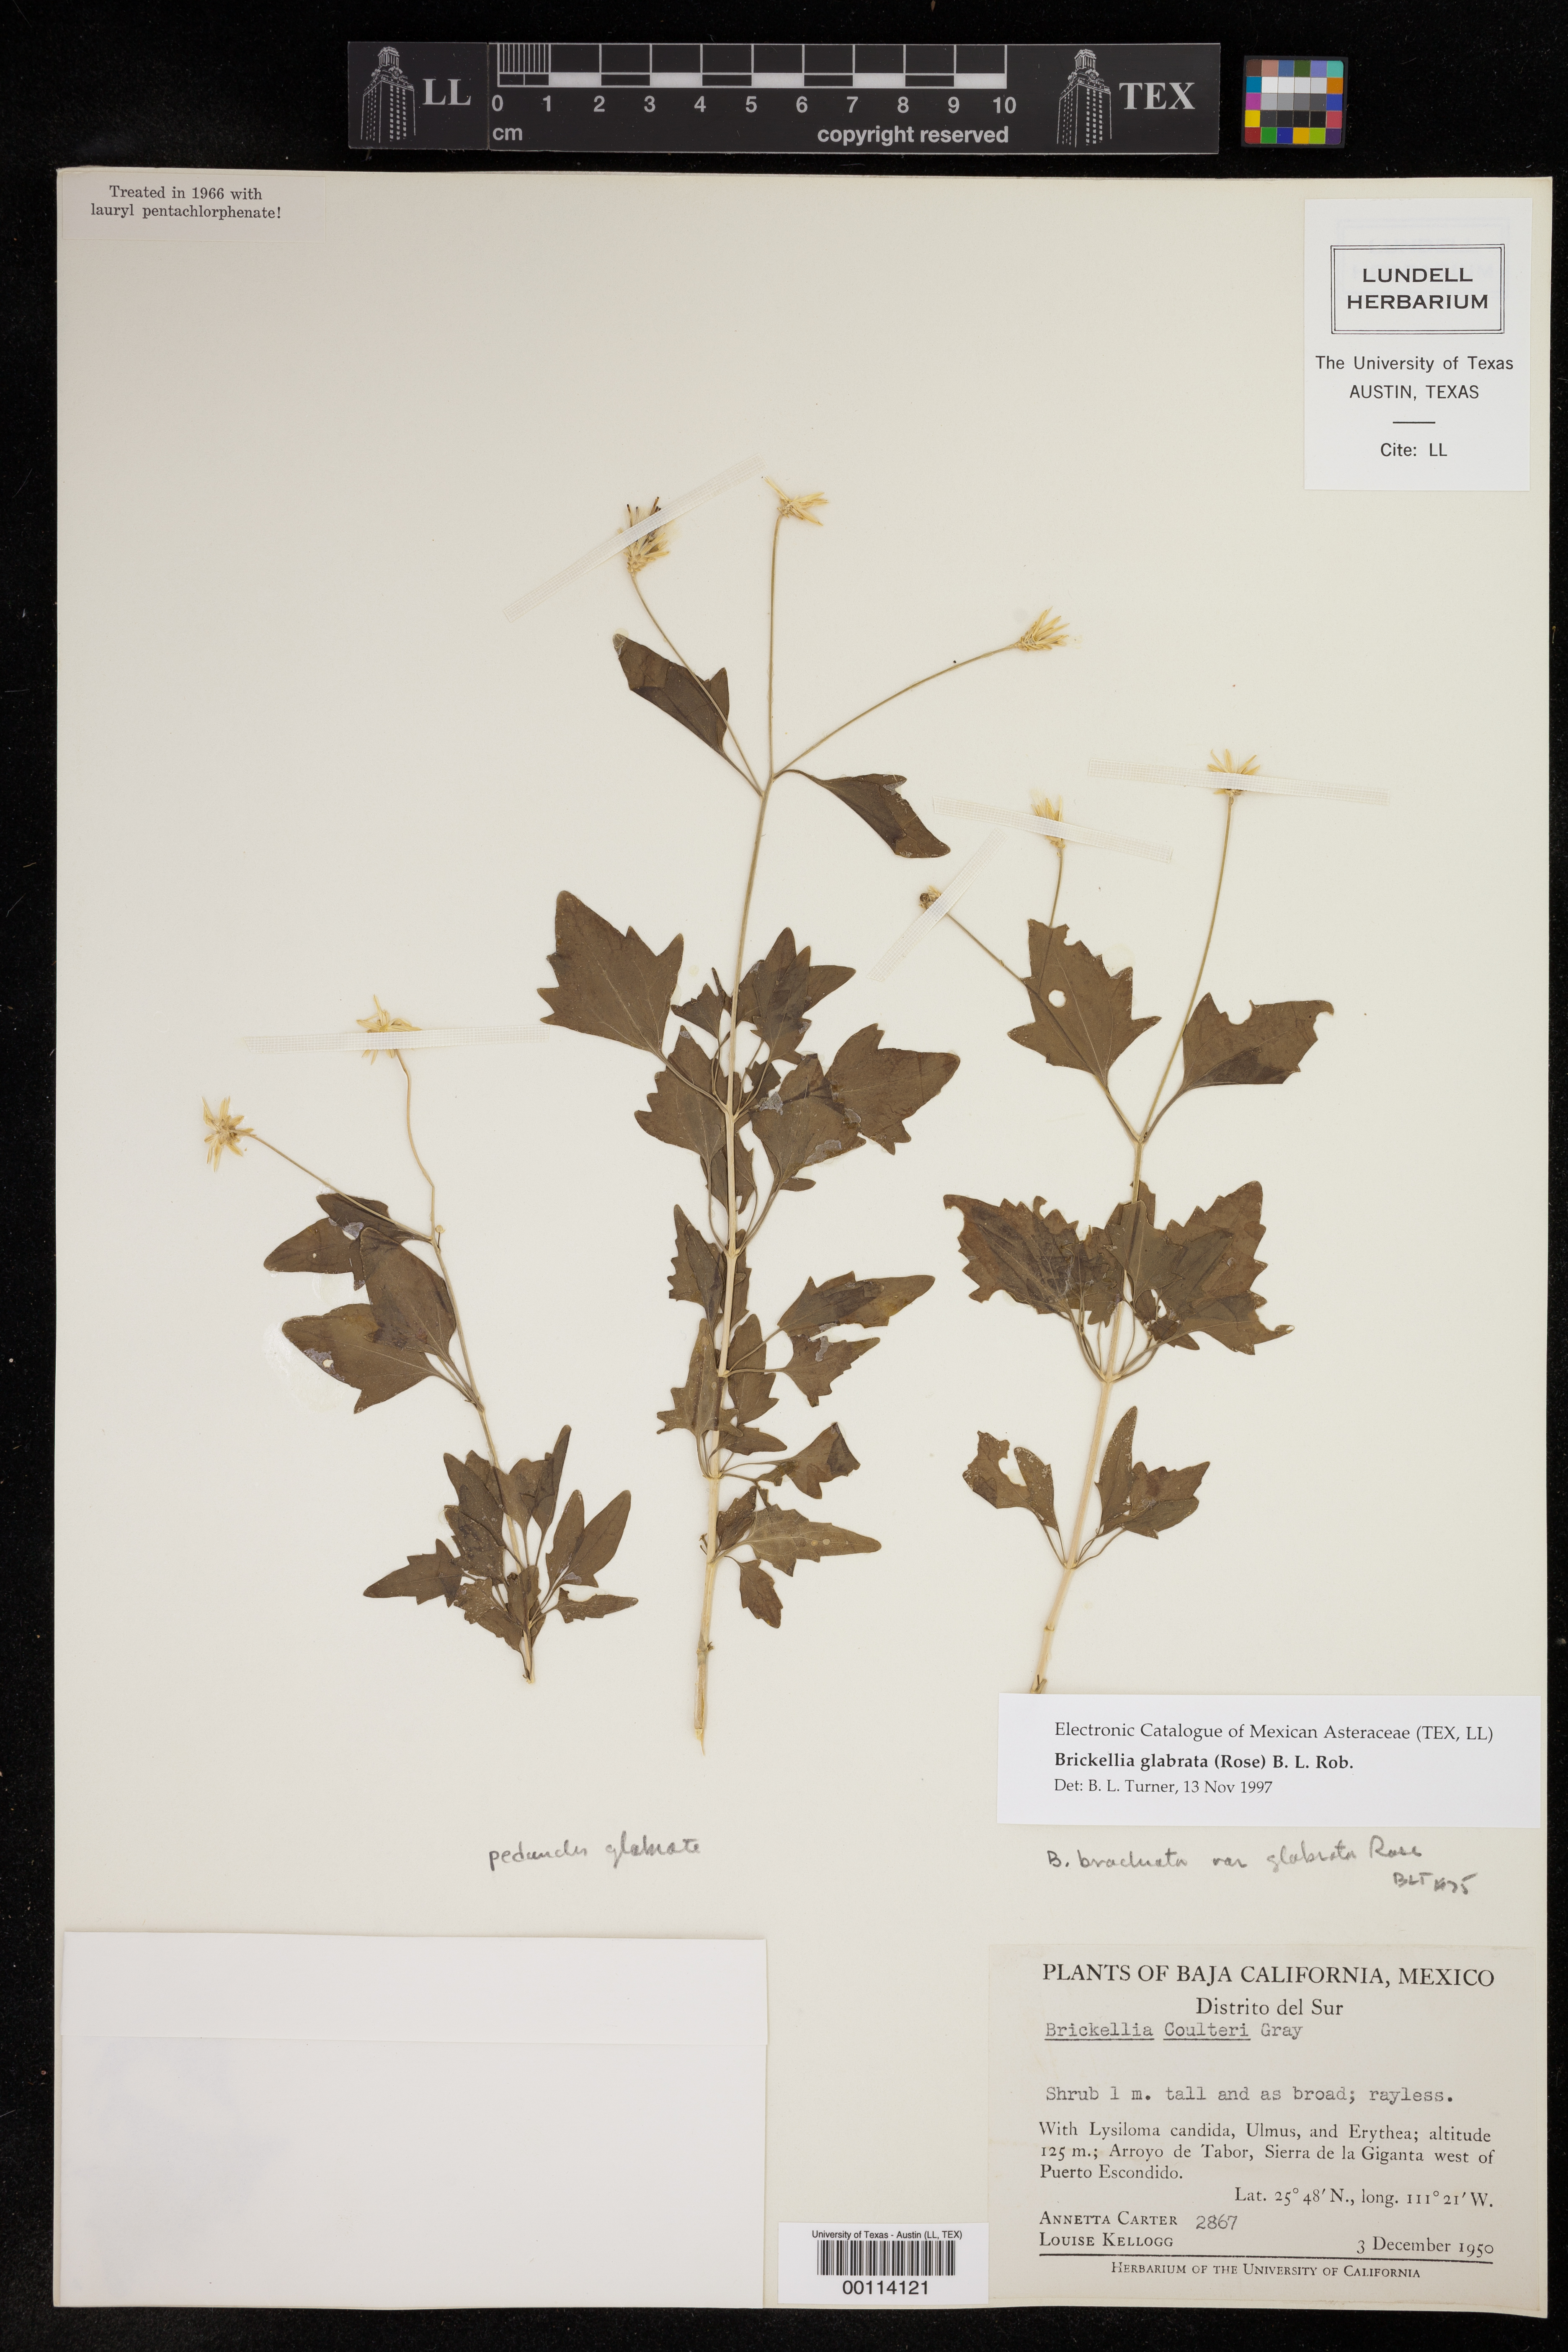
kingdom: Plantae
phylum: Tracheophyta
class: Magnoliopsida
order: Asterales
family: Asteraceae
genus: Brickellia
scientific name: Brickellia glabrata
